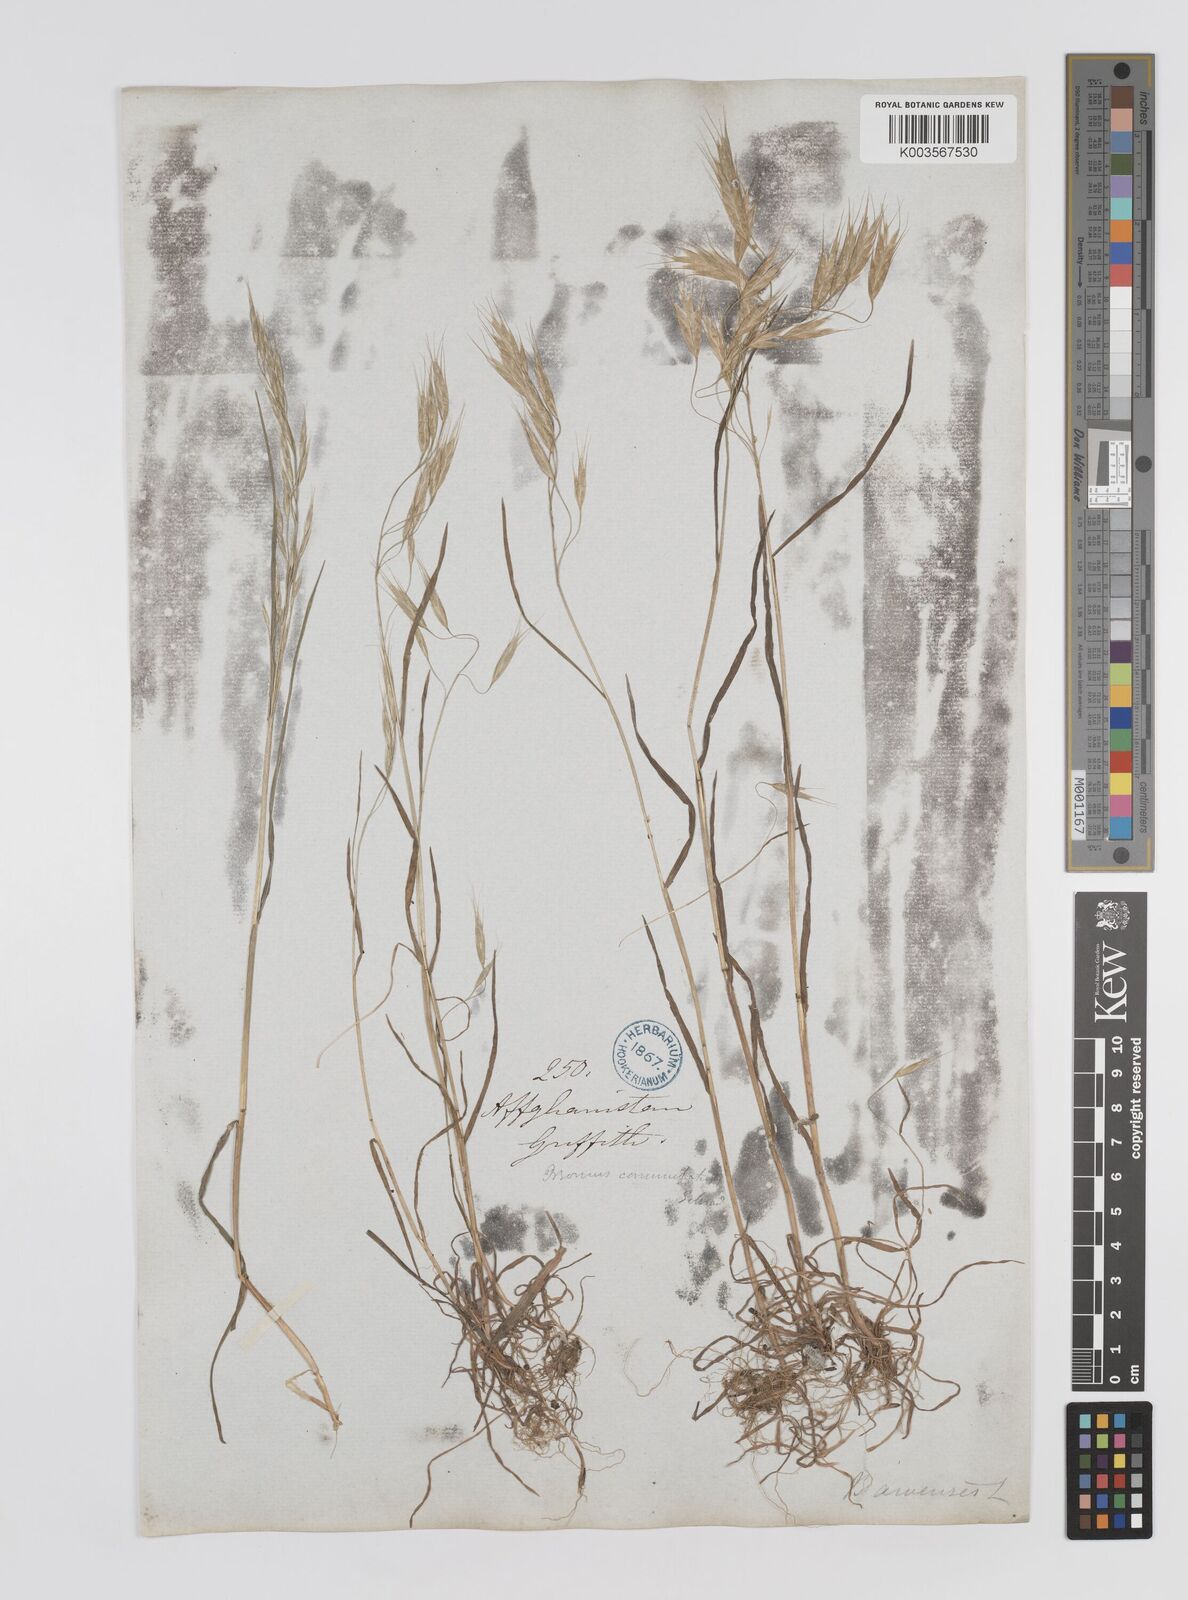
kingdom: Plantae
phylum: Tracheophyta
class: Liliopsida
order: Poales
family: Poaceae
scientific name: Poaceae
